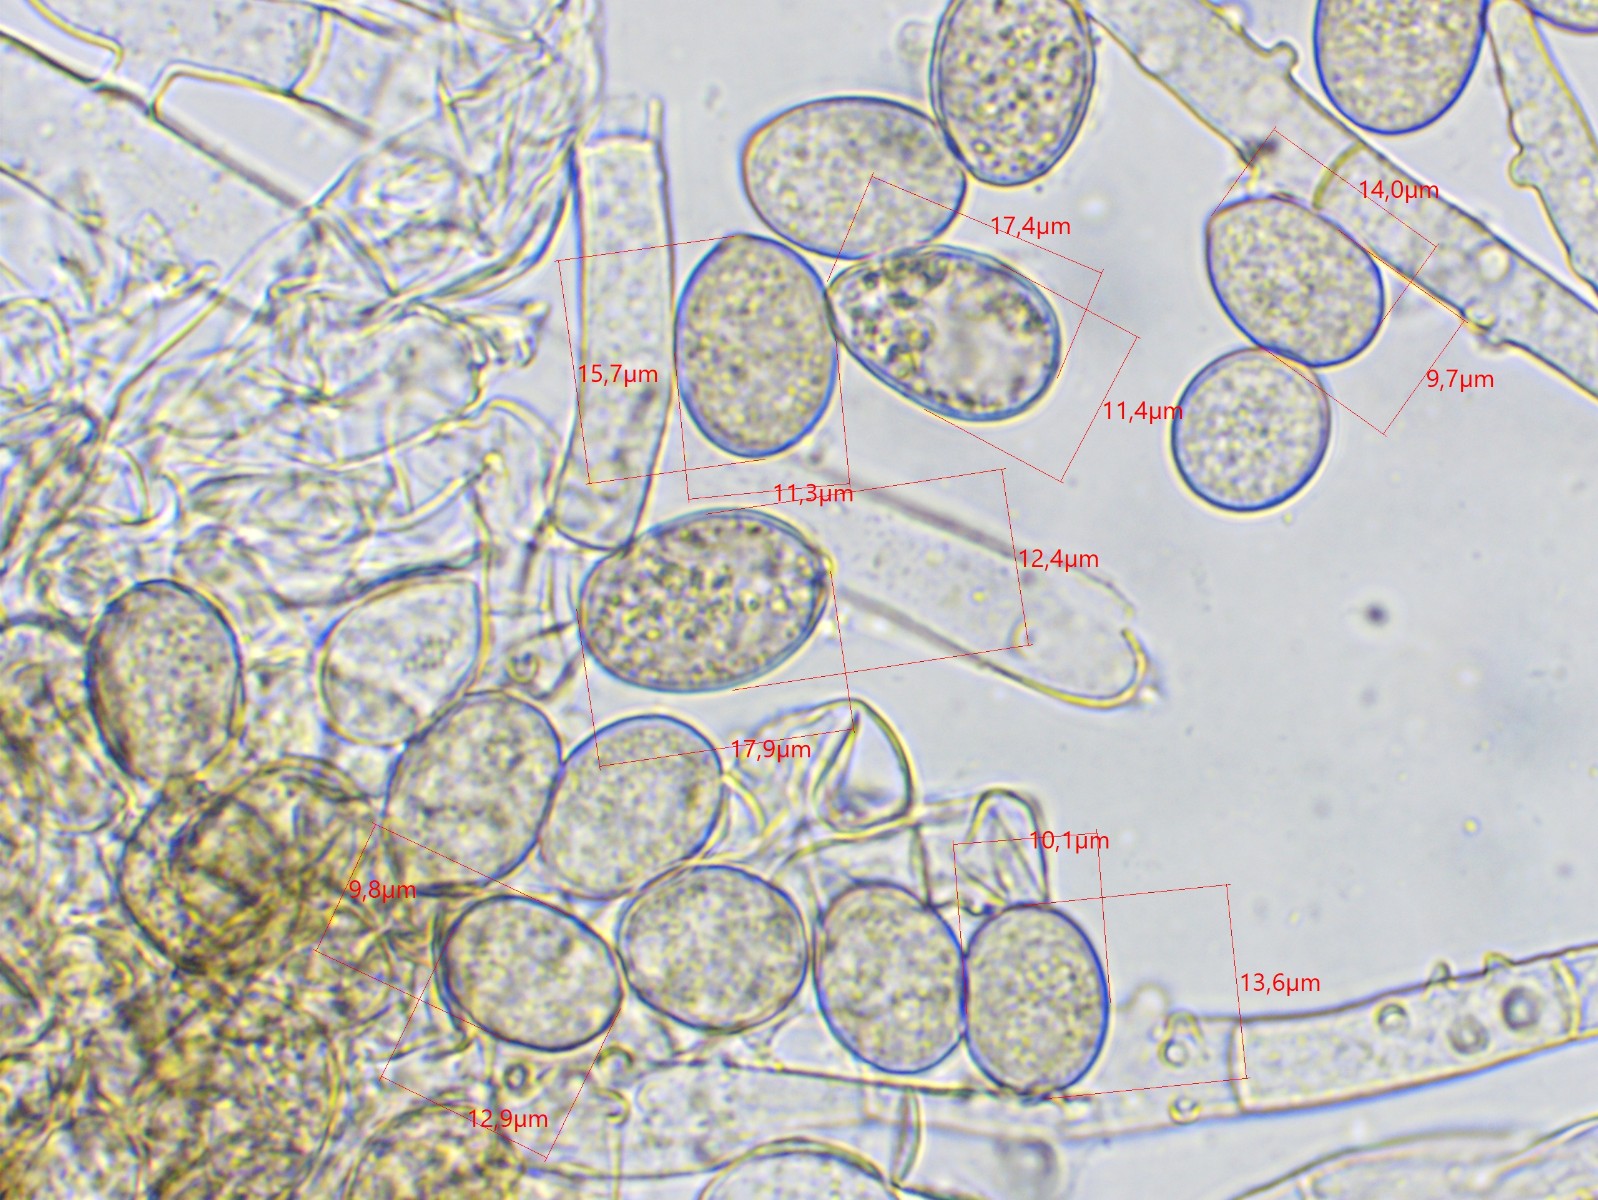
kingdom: Fungi
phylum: Basidiomycota
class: Agaricomycetes
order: Cantharellales
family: Botryobasidiaceae
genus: Botryobasidium
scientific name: Botryobasidium conspersum
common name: olivengrå spindhinde
